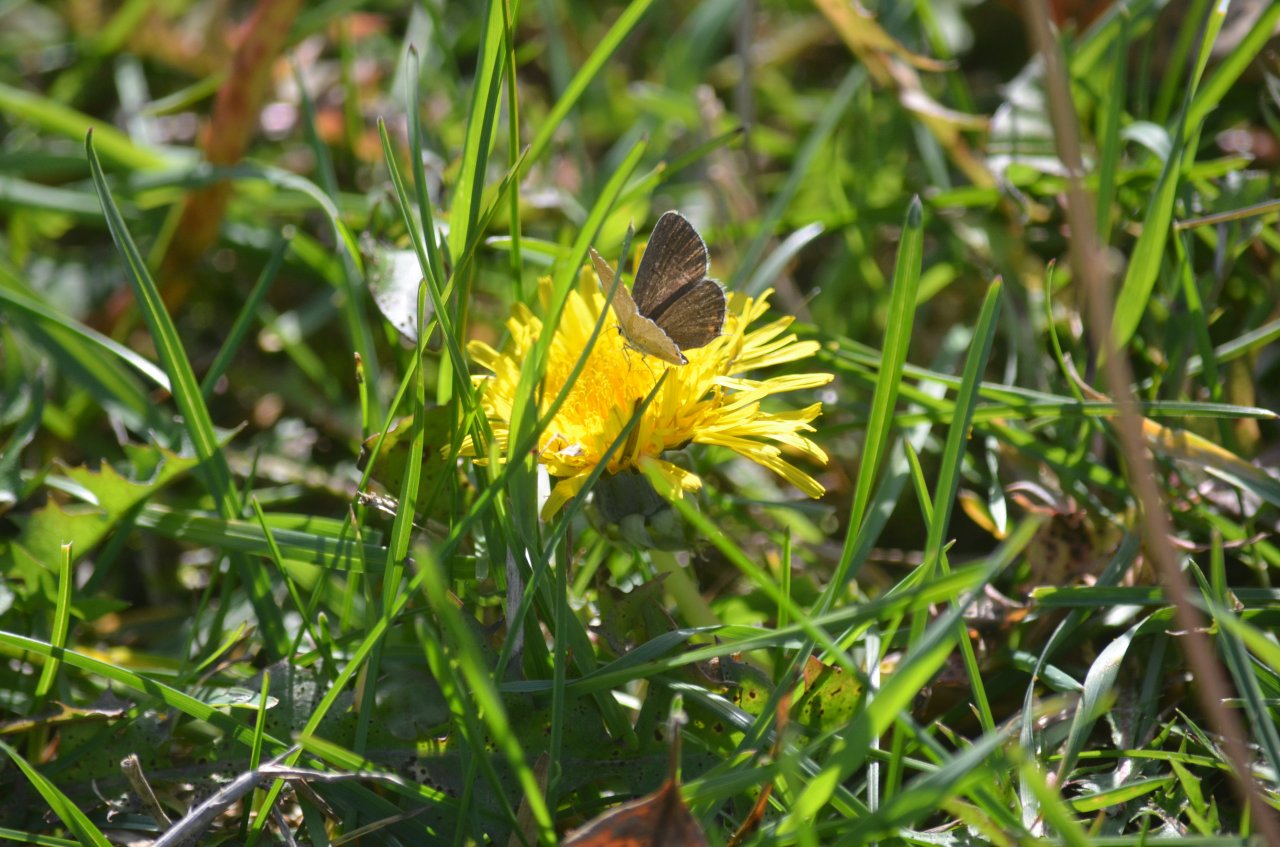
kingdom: Animalia
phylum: Arthropoda
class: Insecta
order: Lepidoptera
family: Lycaenidae
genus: Elkalyce
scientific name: Elkalyce comyntas
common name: Eastern Tailed-Blue
